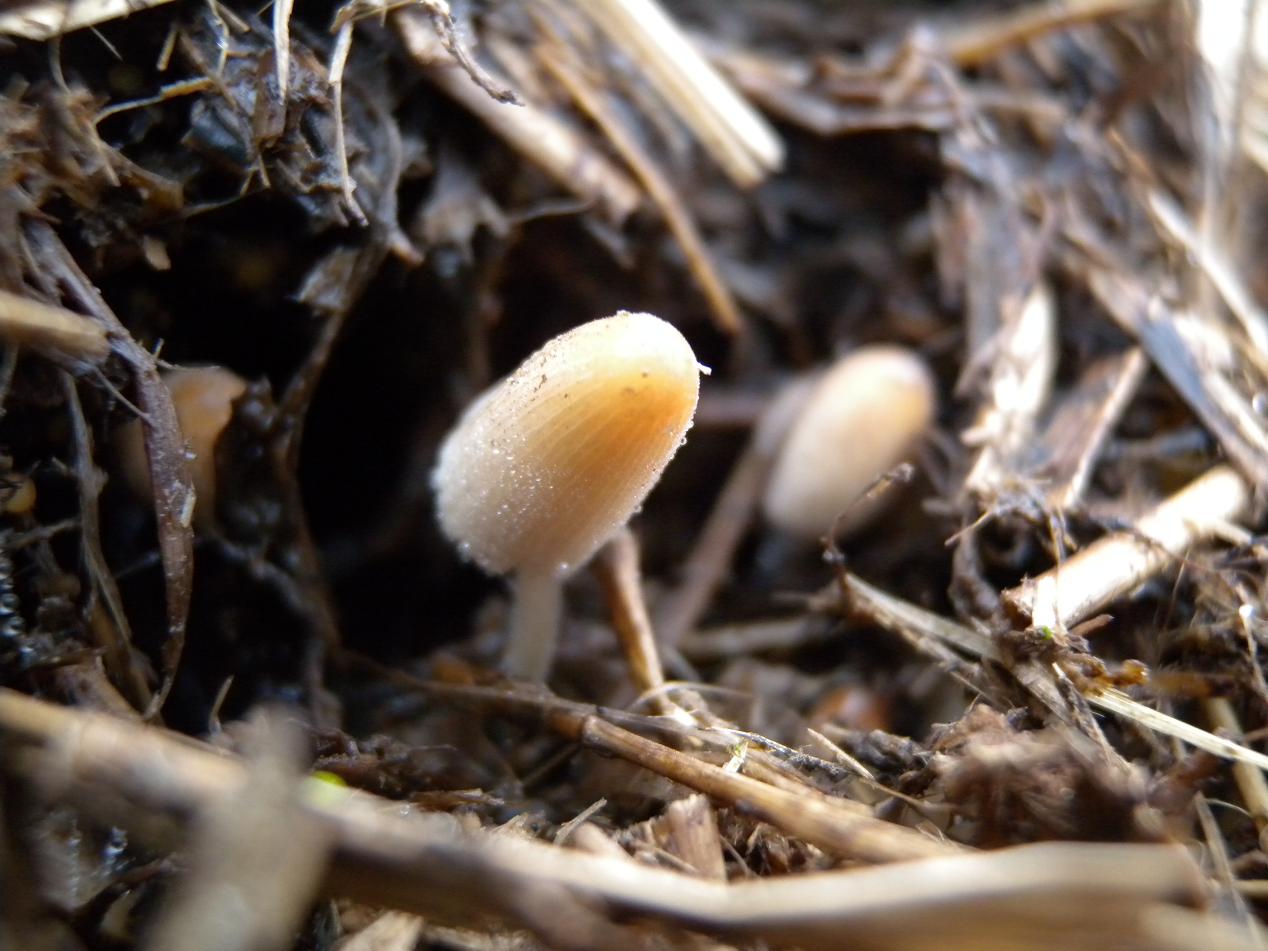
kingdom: Fungi
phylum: Basidiomycota
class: Agaricomycetes
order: Agaricales
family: Psathyrellaceae
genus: Tulosesus
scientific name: Tulosesus congregatus
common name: klynge-blækhat
